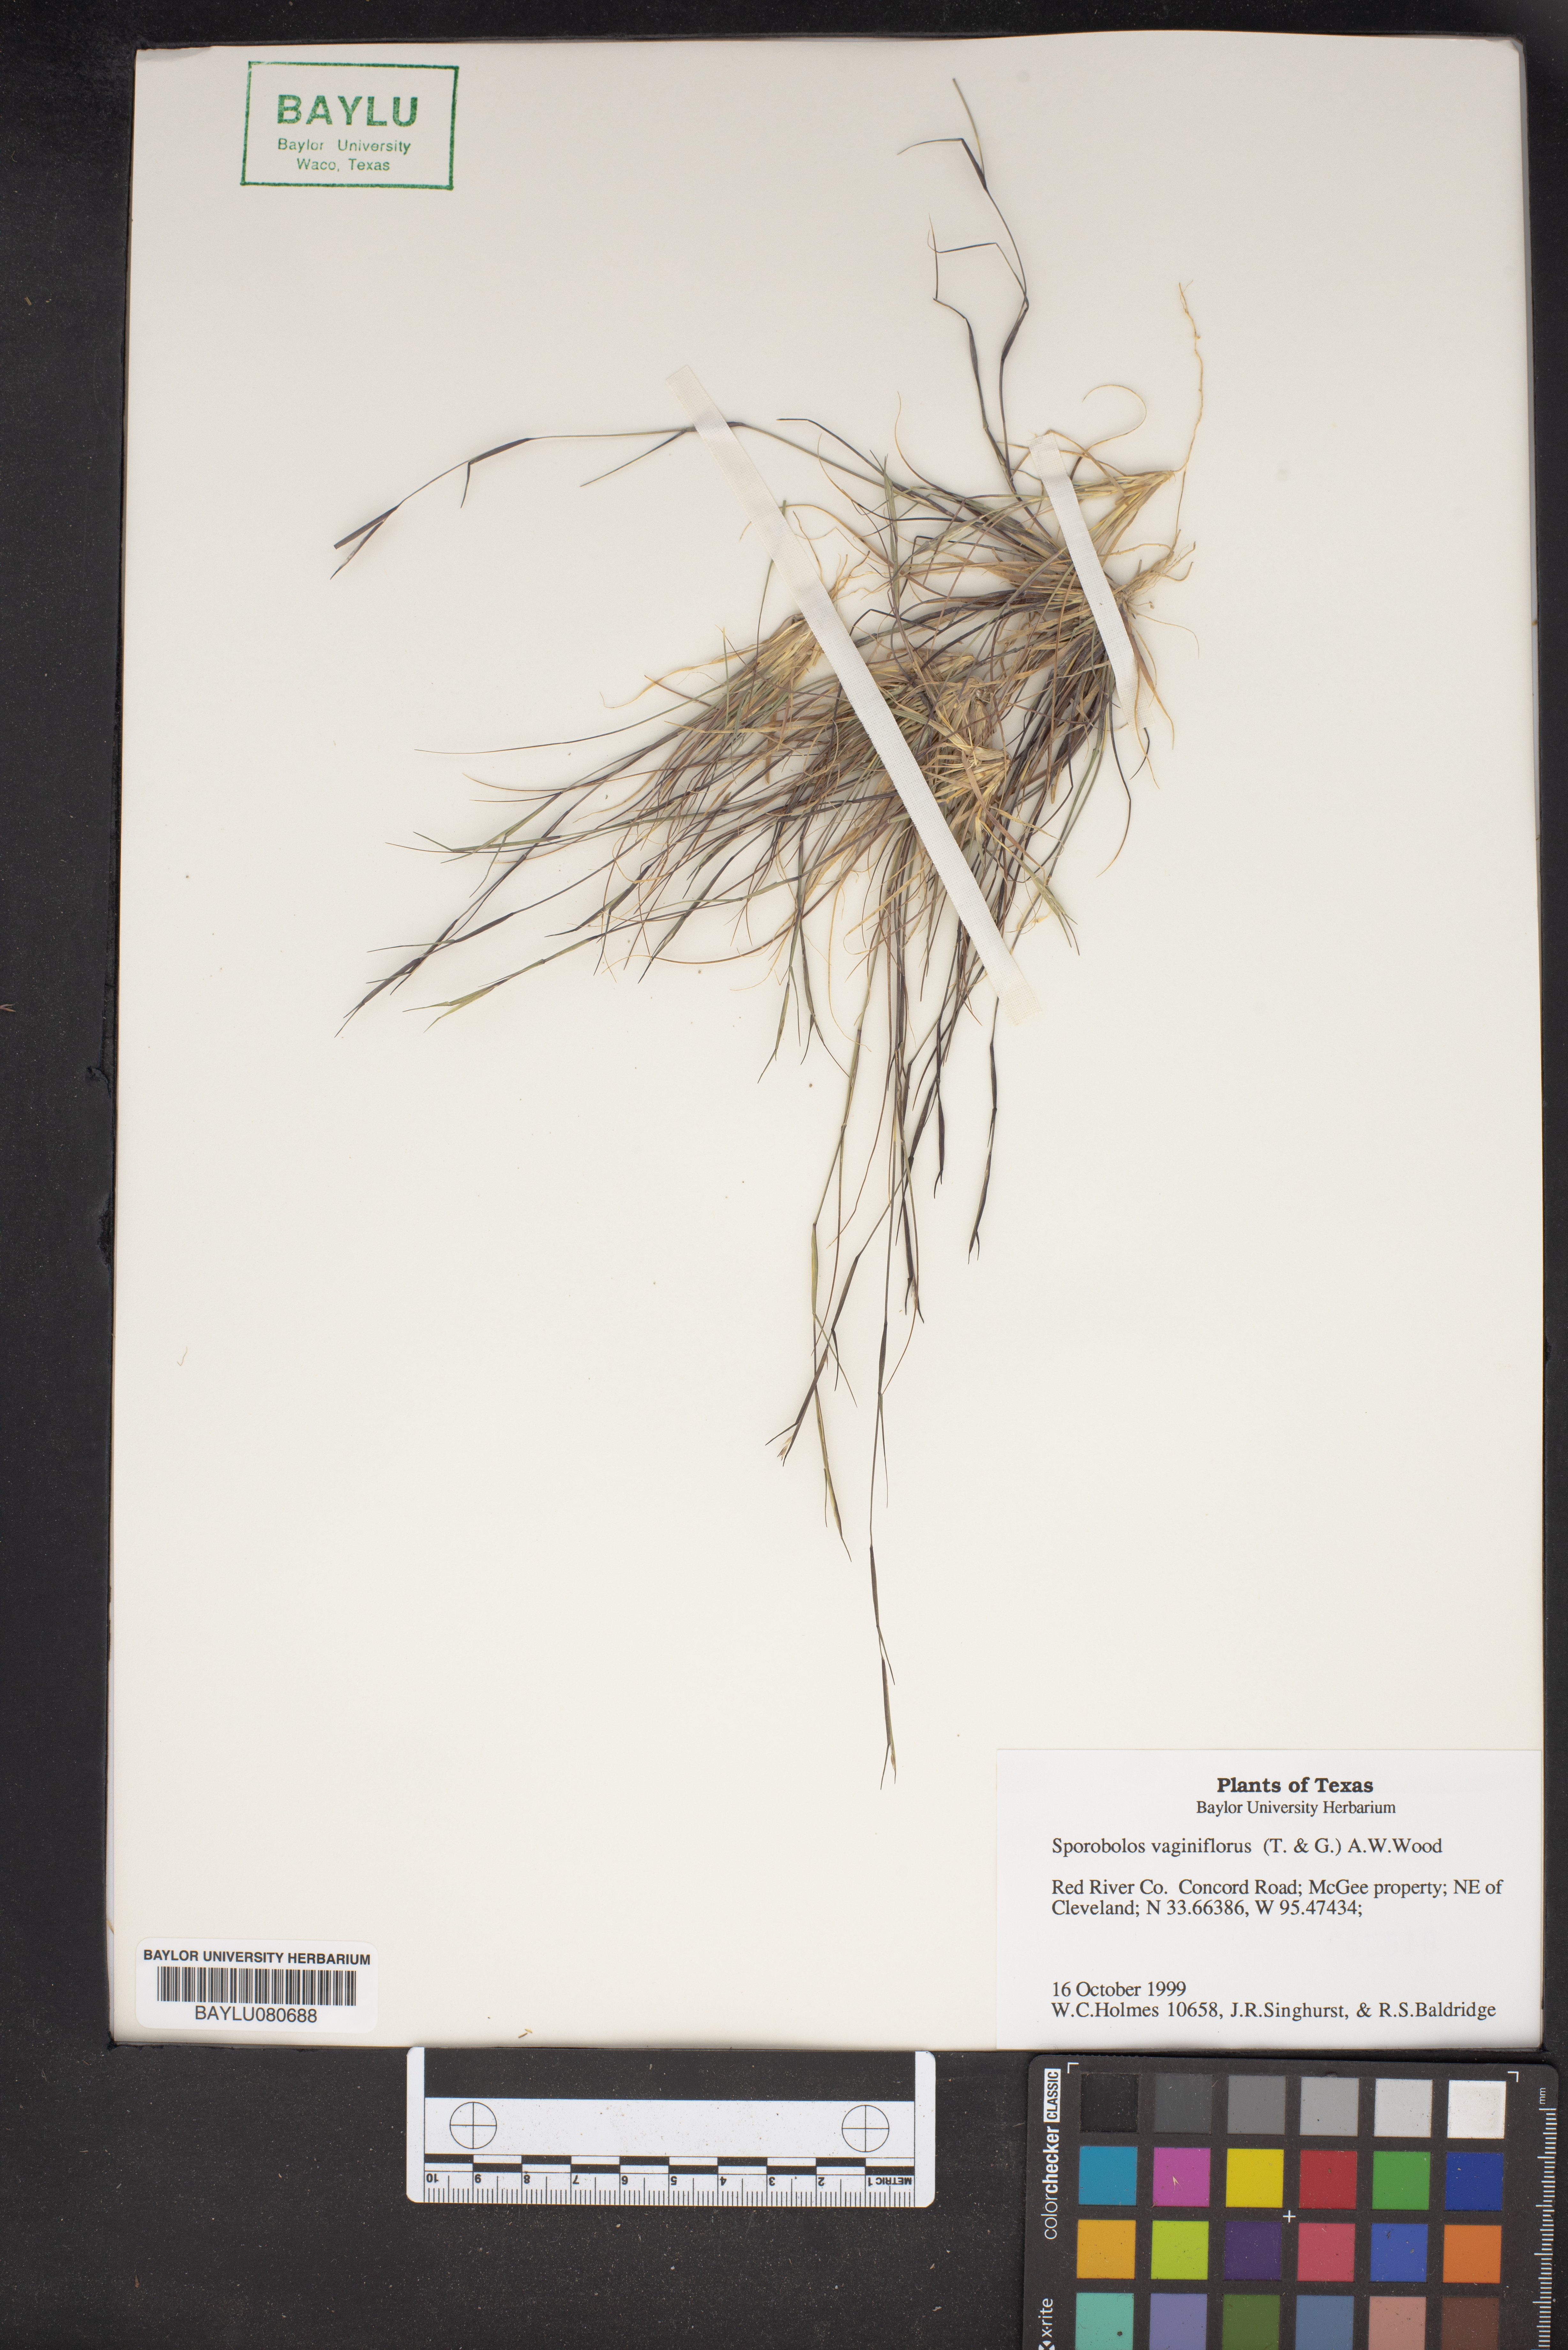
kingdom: Plantae
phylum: Tracheophyta
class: Liliopsida
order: Poales
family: Poaceae
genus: Sporobolus
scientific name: Sporobolus vaginiflorus
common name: Poverty dropseed
